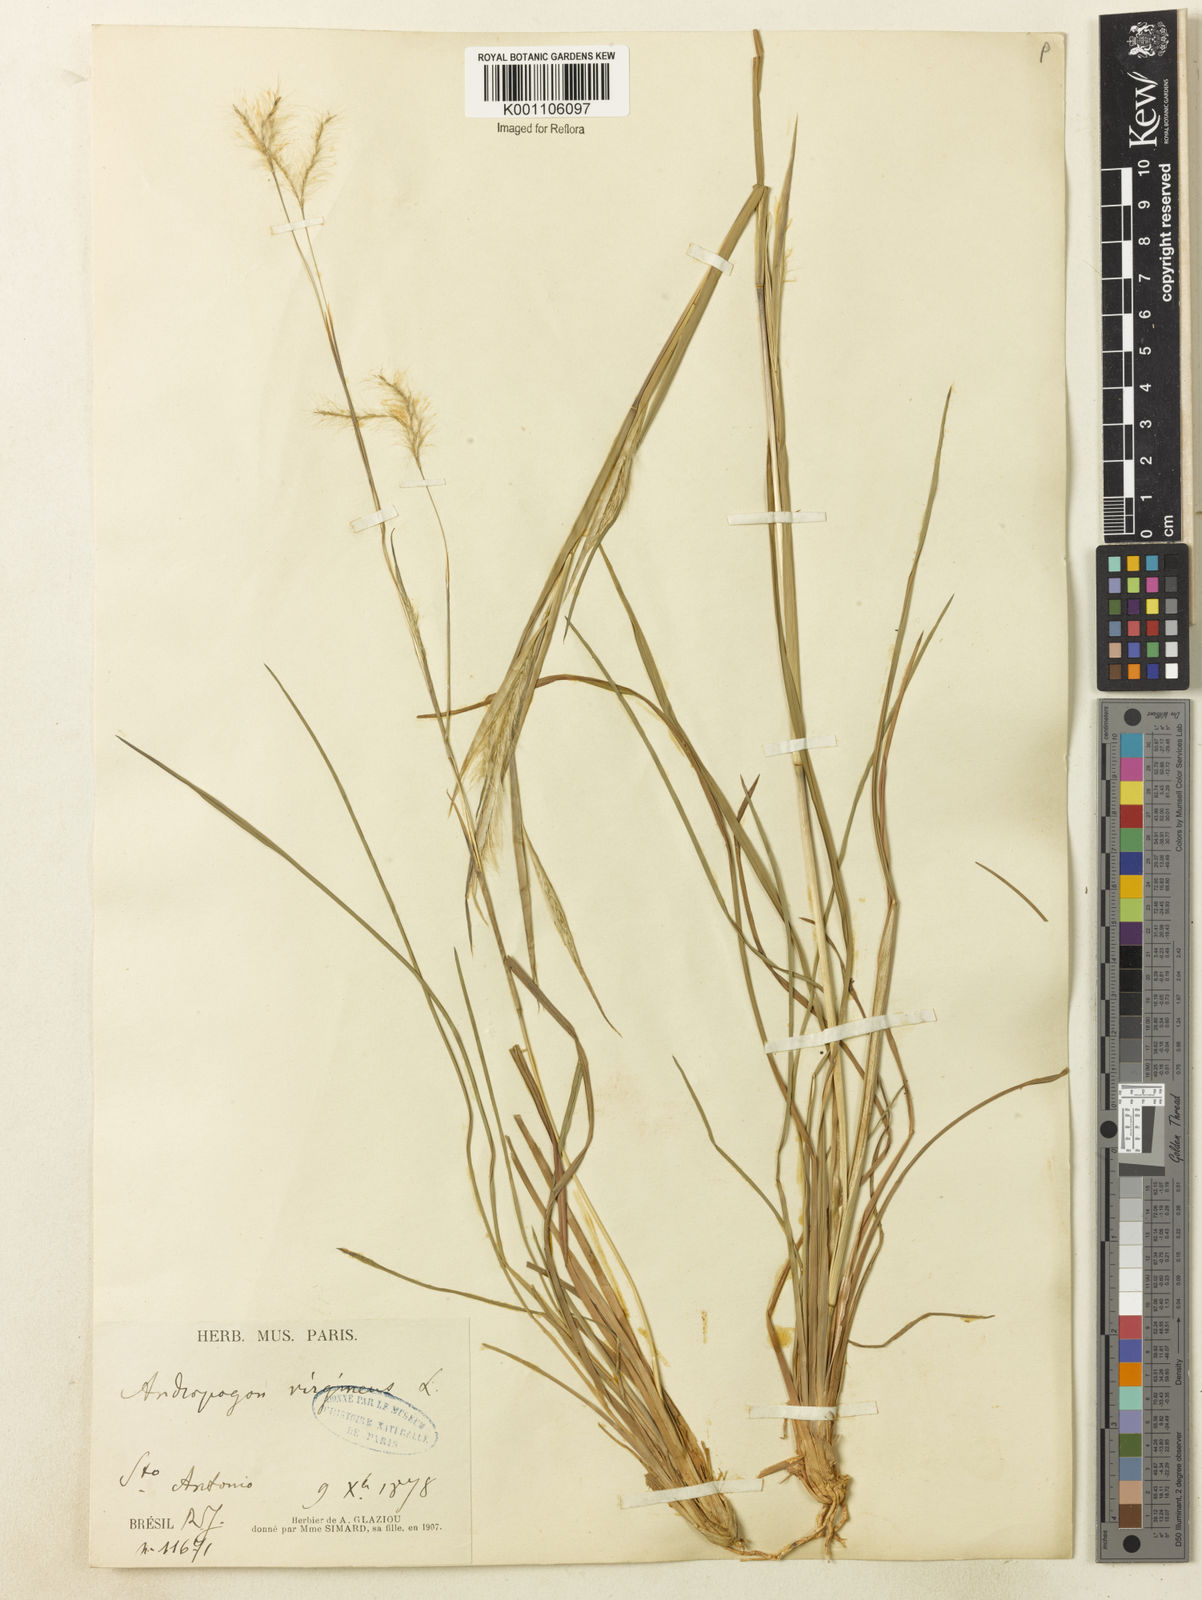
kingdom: Plantae
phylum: Tracheophyta
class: Liliopsida
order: Poales
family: Poaceae
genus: Andropogon
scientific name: Andropogon leucostachyus
